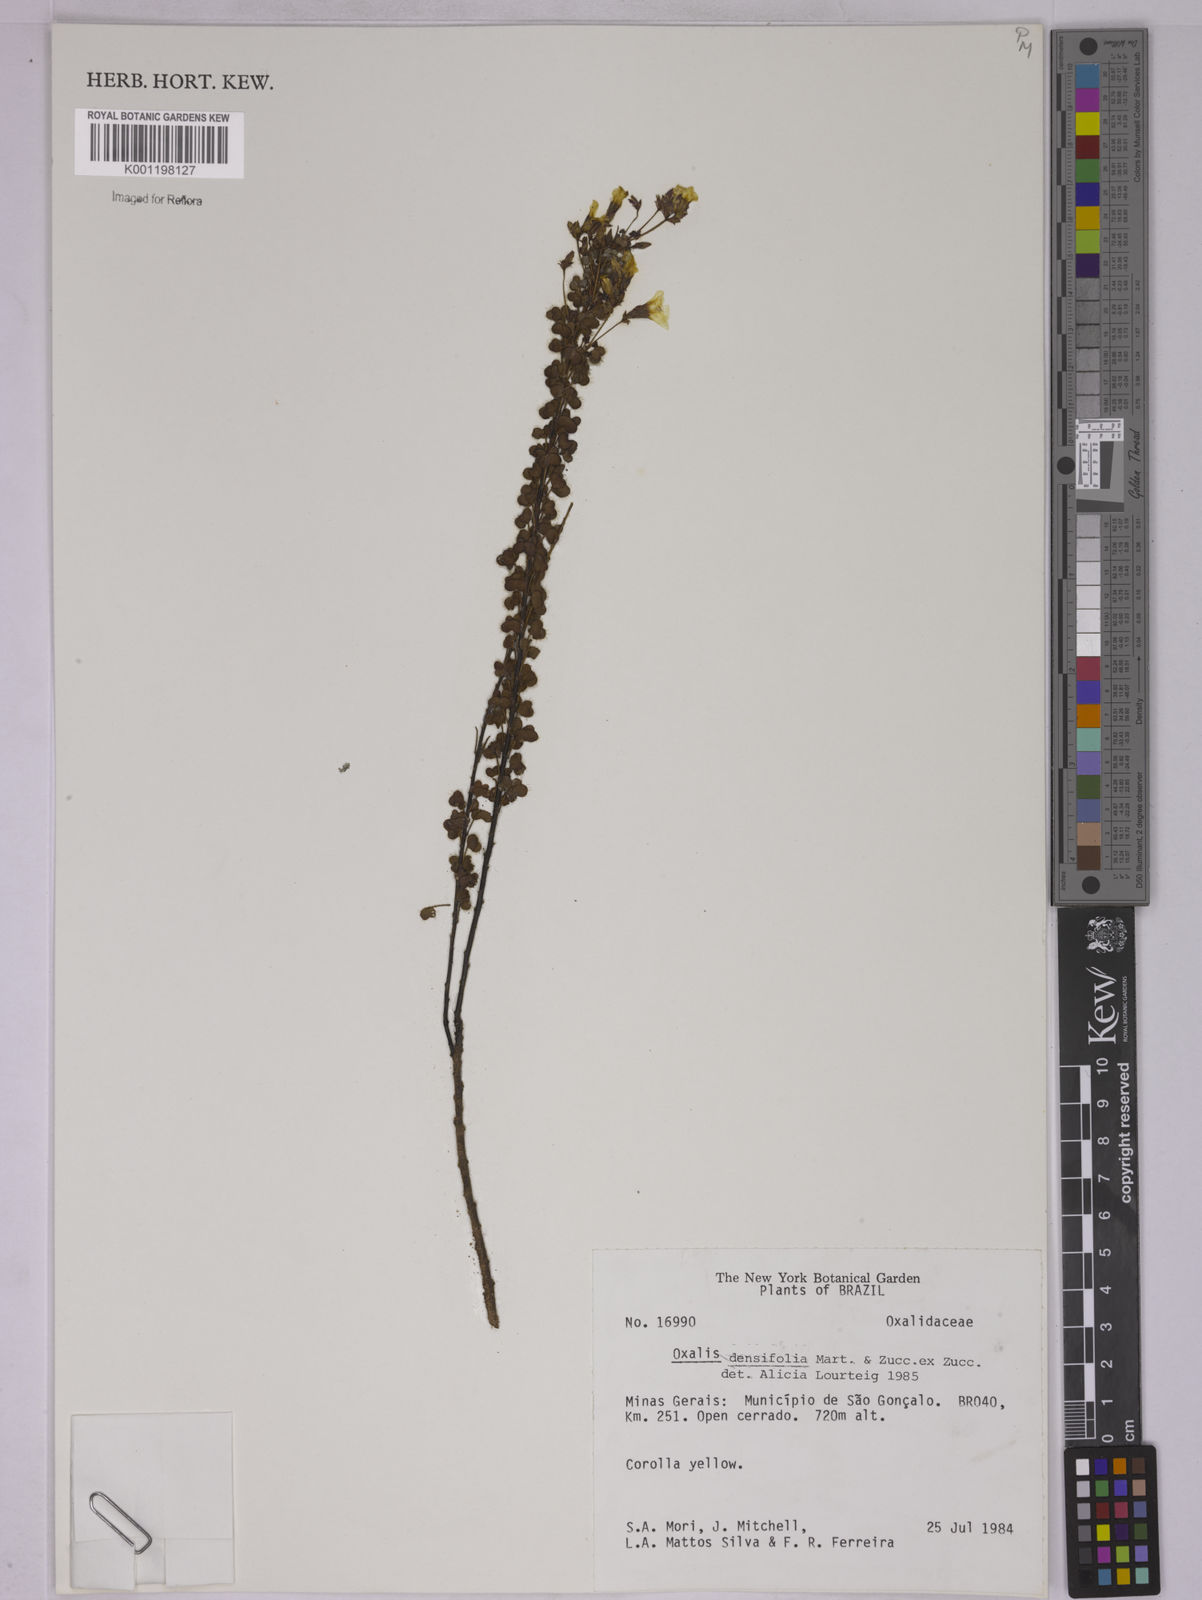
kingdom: Plantae
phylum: Tracheophyta
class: Magnoliopsida
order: Oxalidales
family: Oxalidaceae
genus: Oxalis
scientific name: Oxalis densifolia
